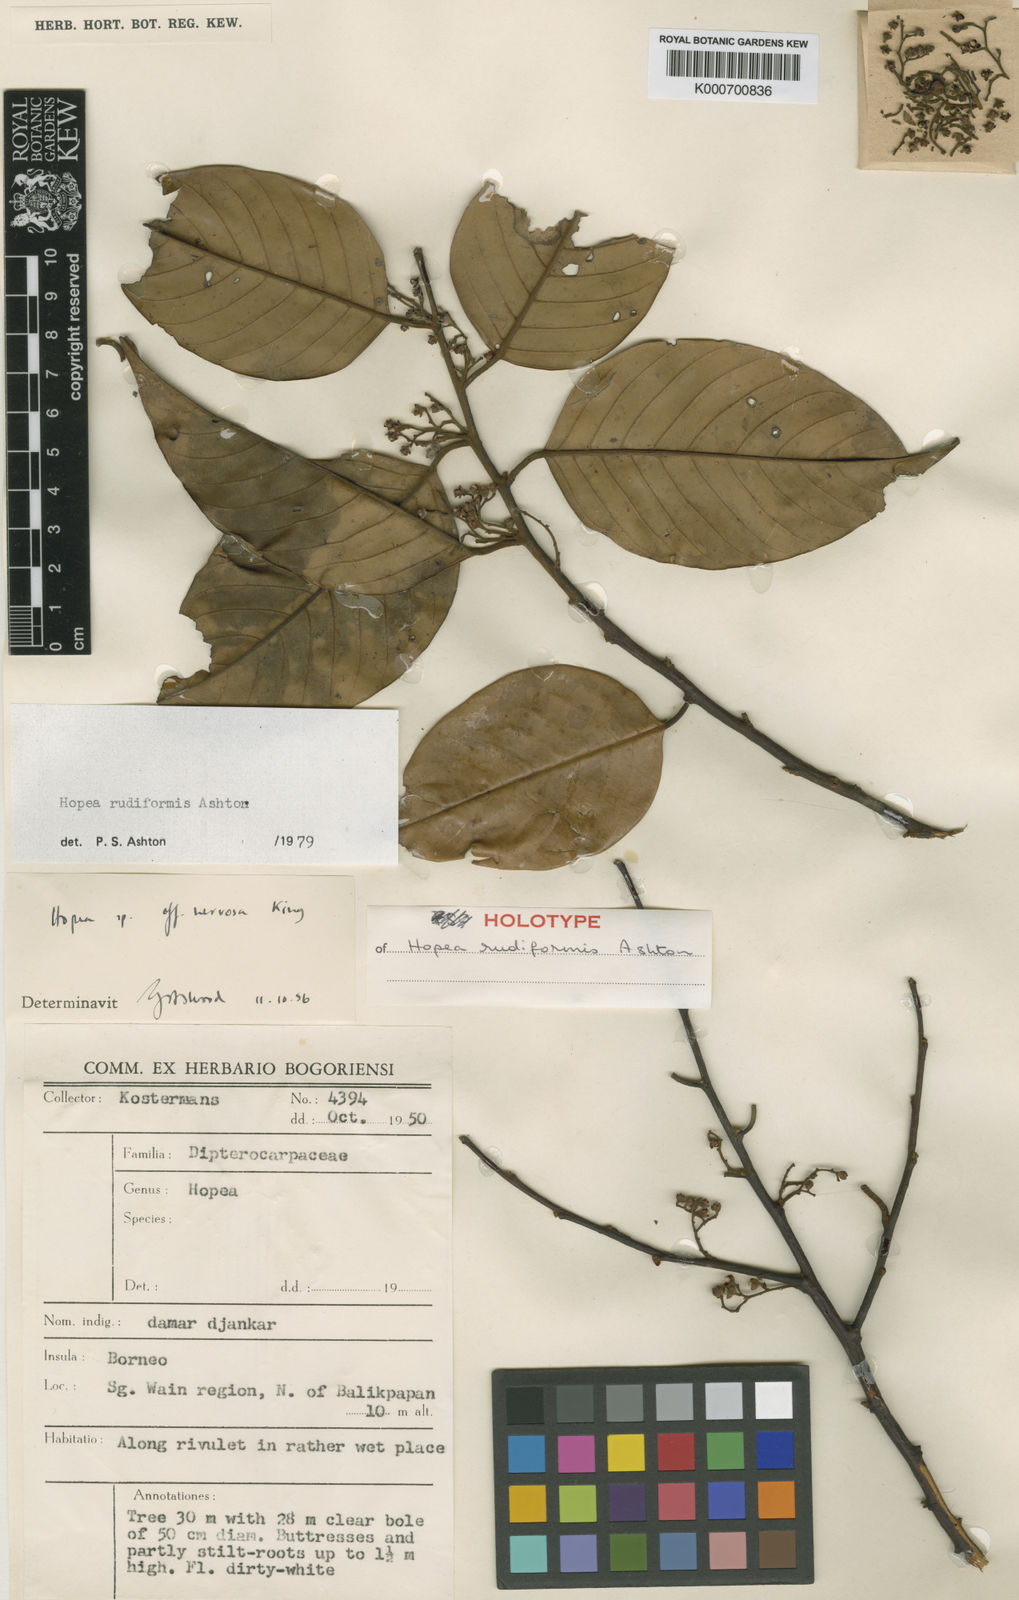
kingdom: Plantae
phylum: Tracheophyta
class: Magnoliopsida
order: Malvales
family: Dipterocarpaceae
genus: Hopea
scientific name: Hopea rudiformis
